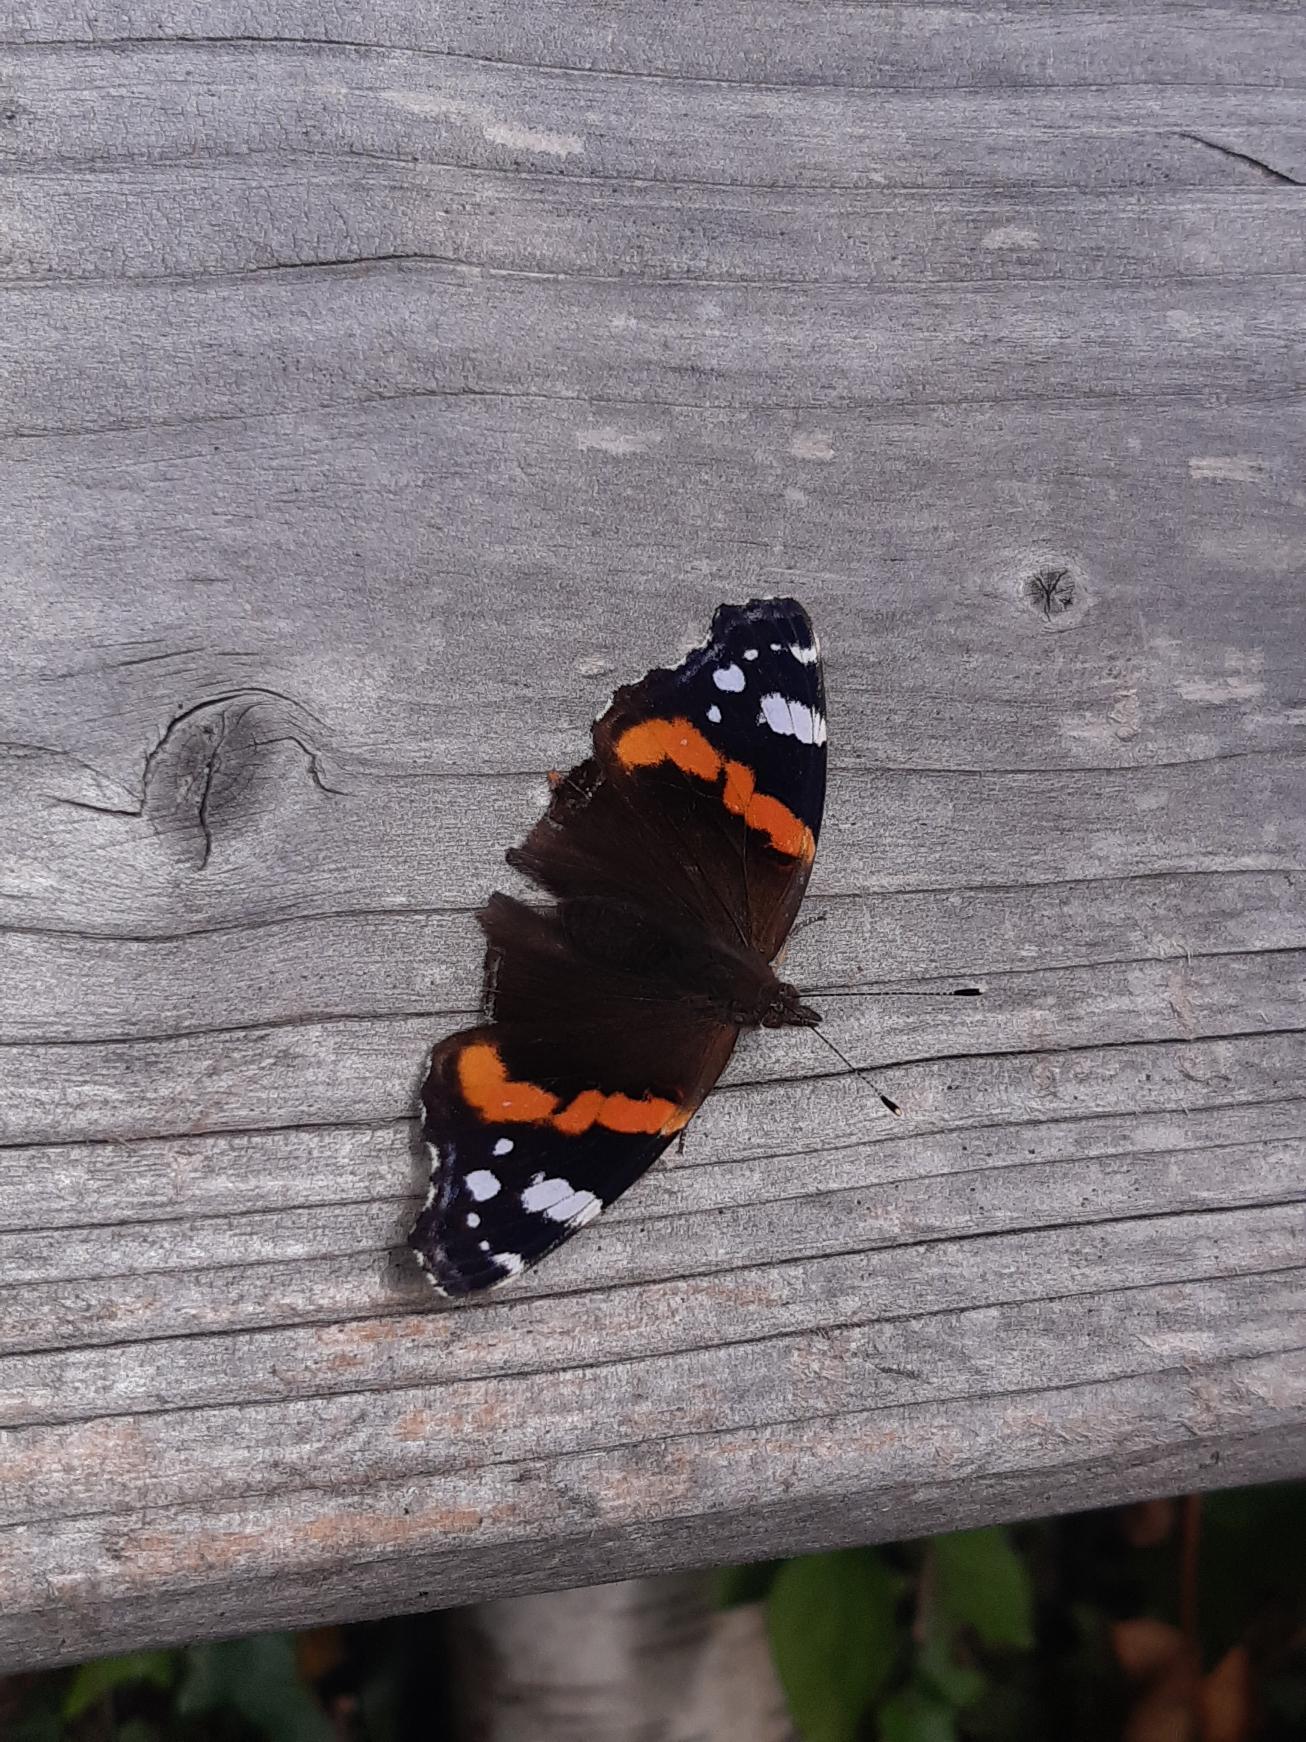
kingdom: Animalia
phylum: Arthropoda
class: Insecta
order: Lepidoptera
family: Nymphalidae
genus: Vanessa
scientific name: Vanessa atalanta
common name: Admiral
